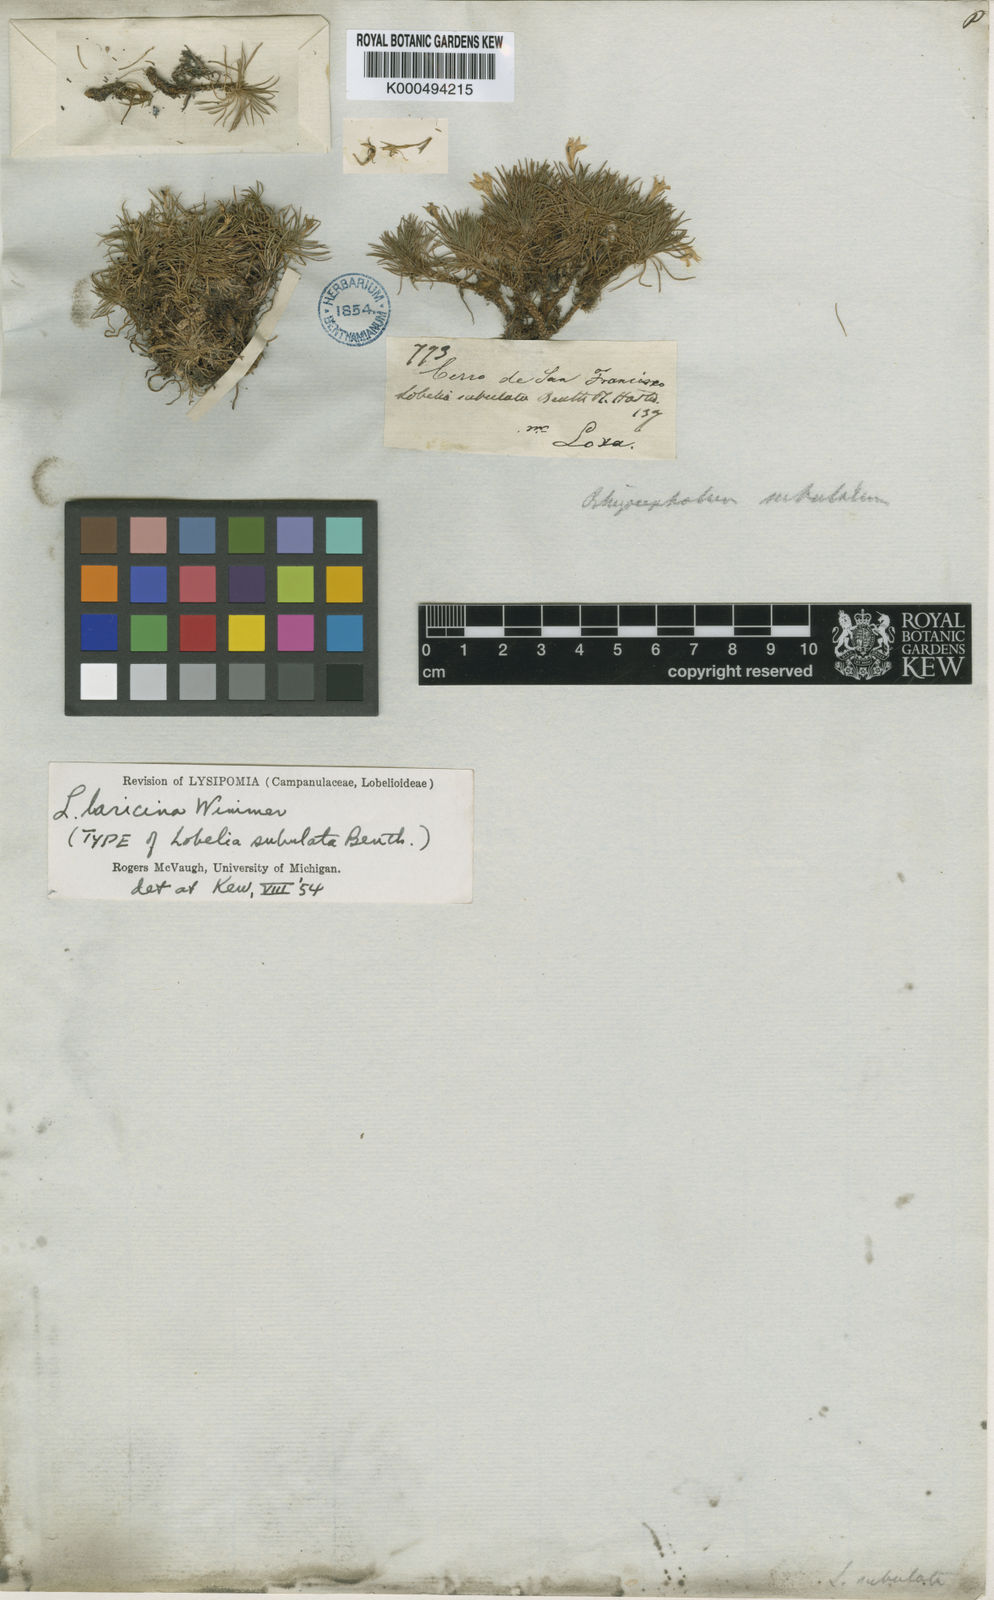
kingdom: Plantae
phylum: Tracheophyta
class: Magnoliopsida
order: Asterales
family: Campanulaceae
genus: Lysipomia
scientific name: Lysipomia laricina
